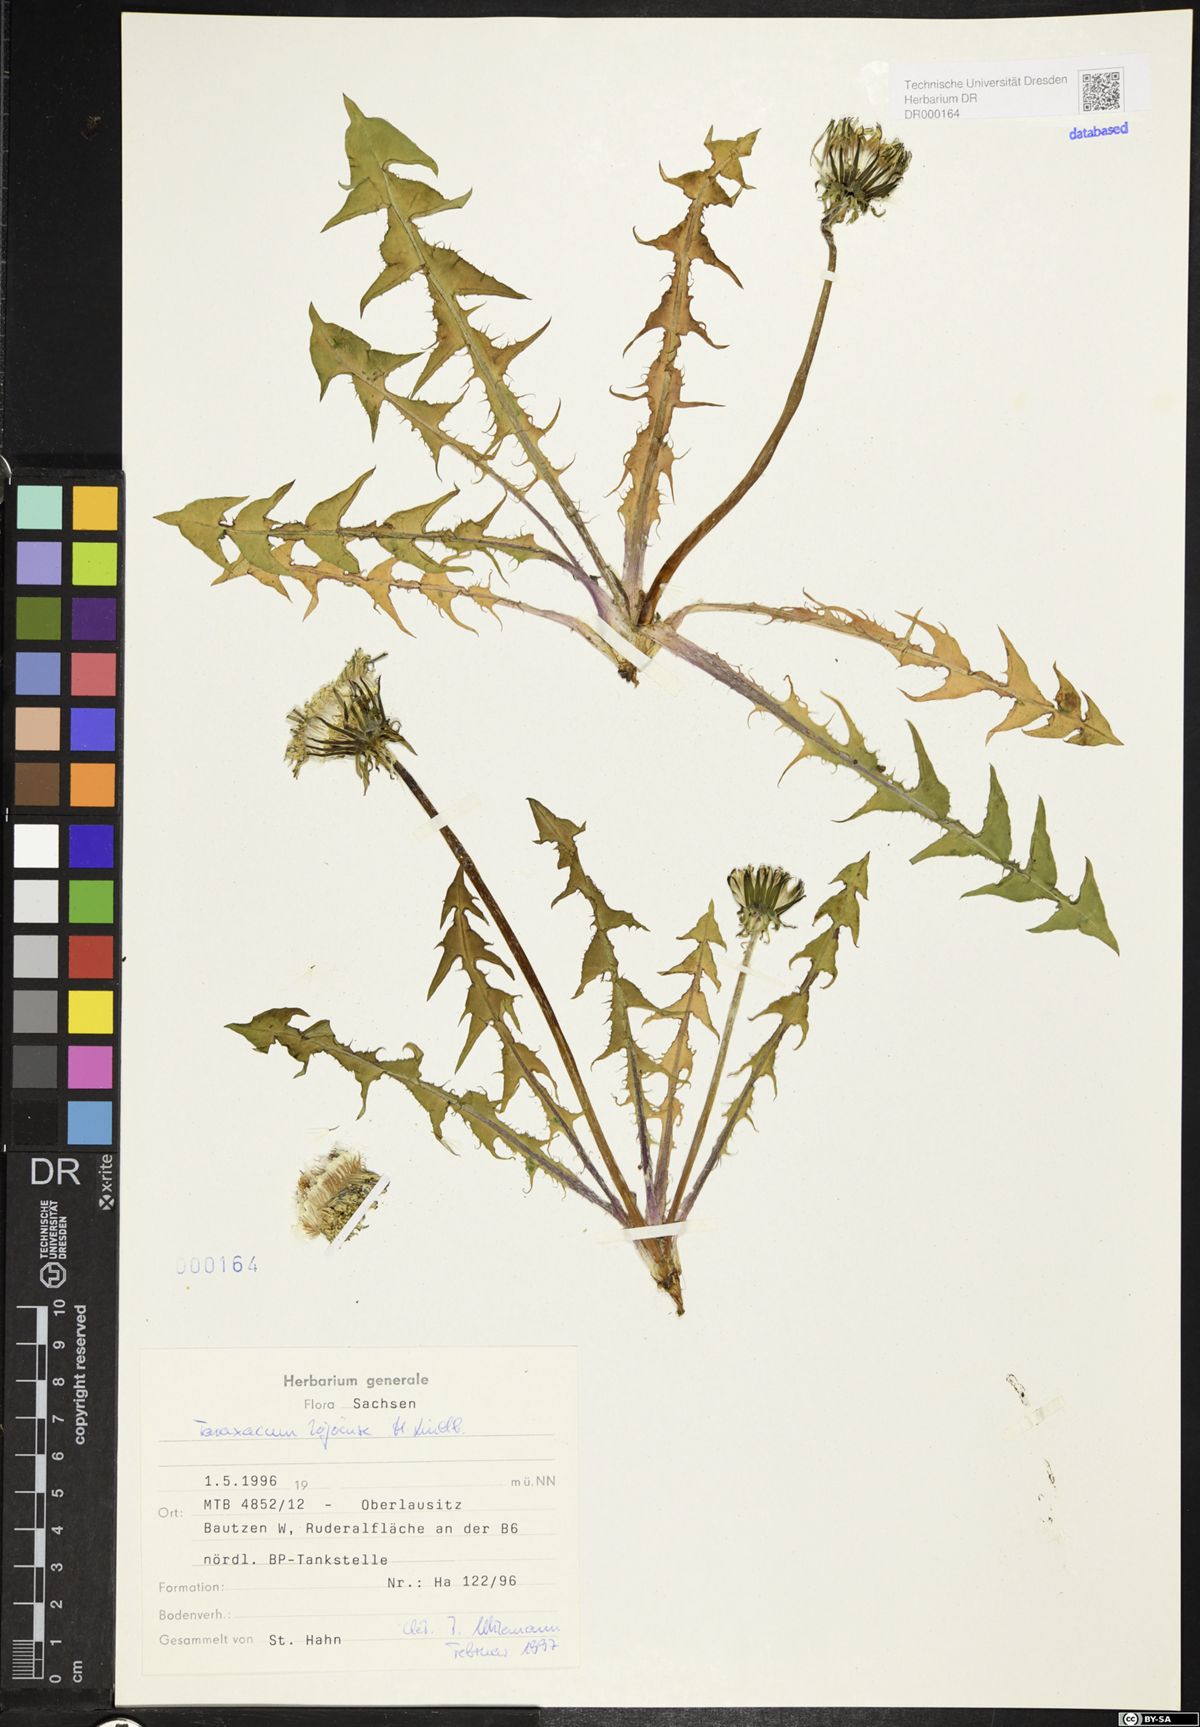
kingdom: Plantae
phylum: Tracheophyta
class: Magnoliopsida
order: Asterales
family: Asteraceae
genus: Taraxacum
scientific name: Taraxacum debrayi
